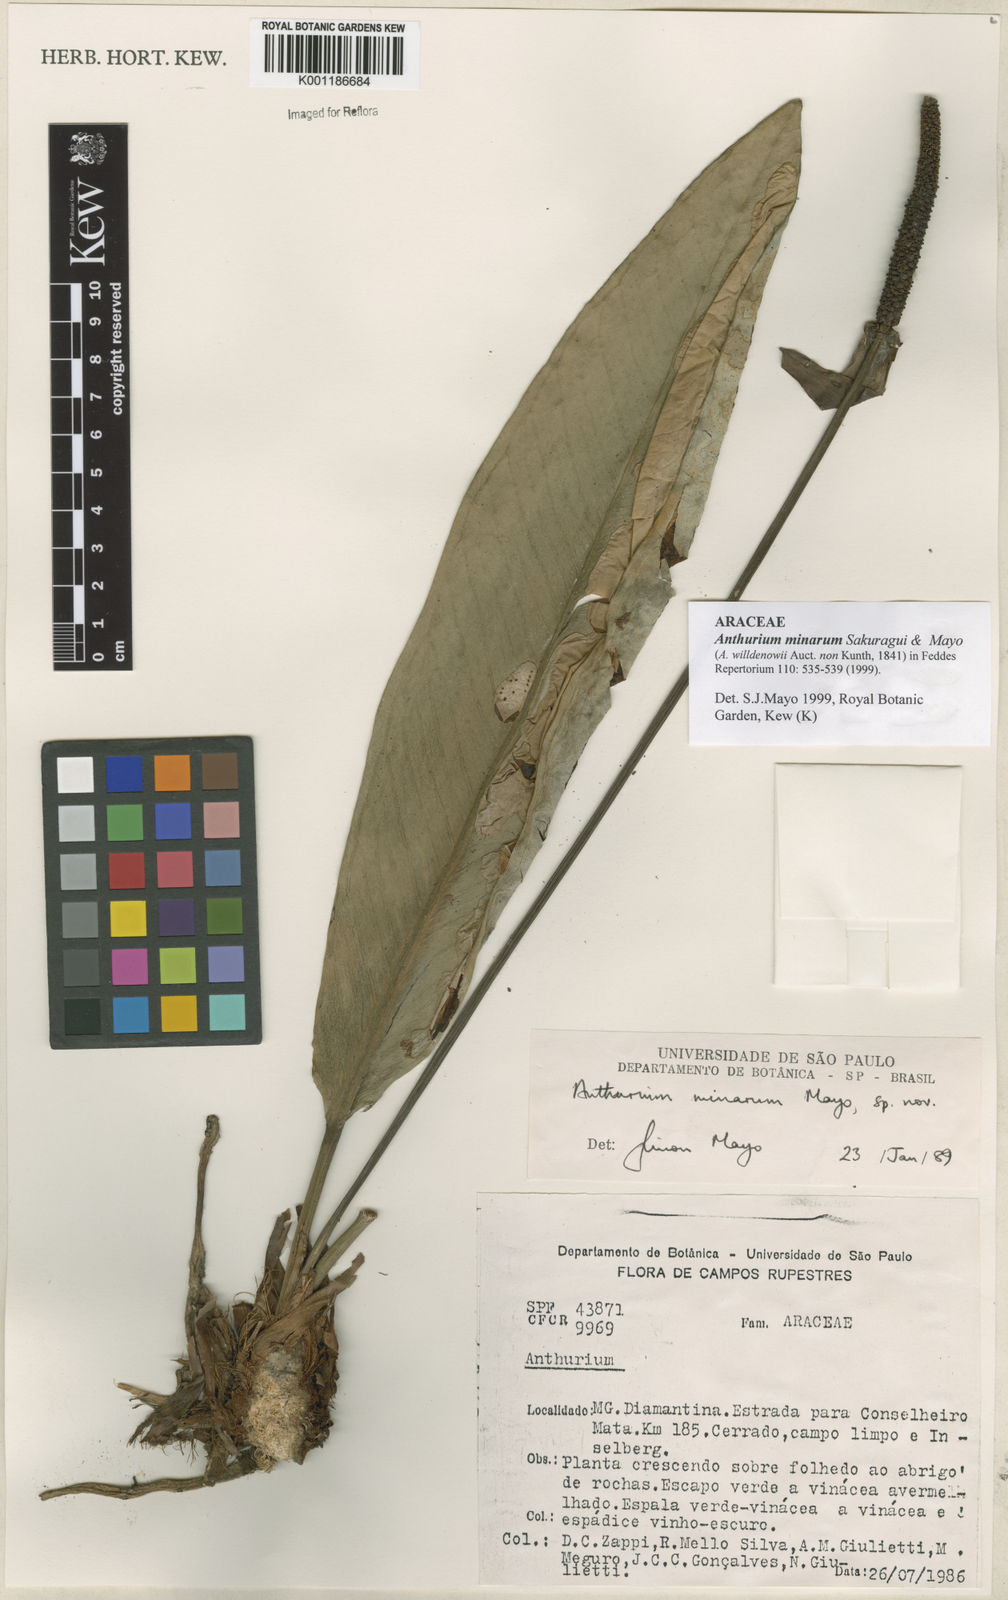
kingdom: Plantae
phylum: Tracheophyta
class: Liliopsida
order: Alismatales
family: Araceae
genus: Anthurium
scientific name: Anthurium minarum
